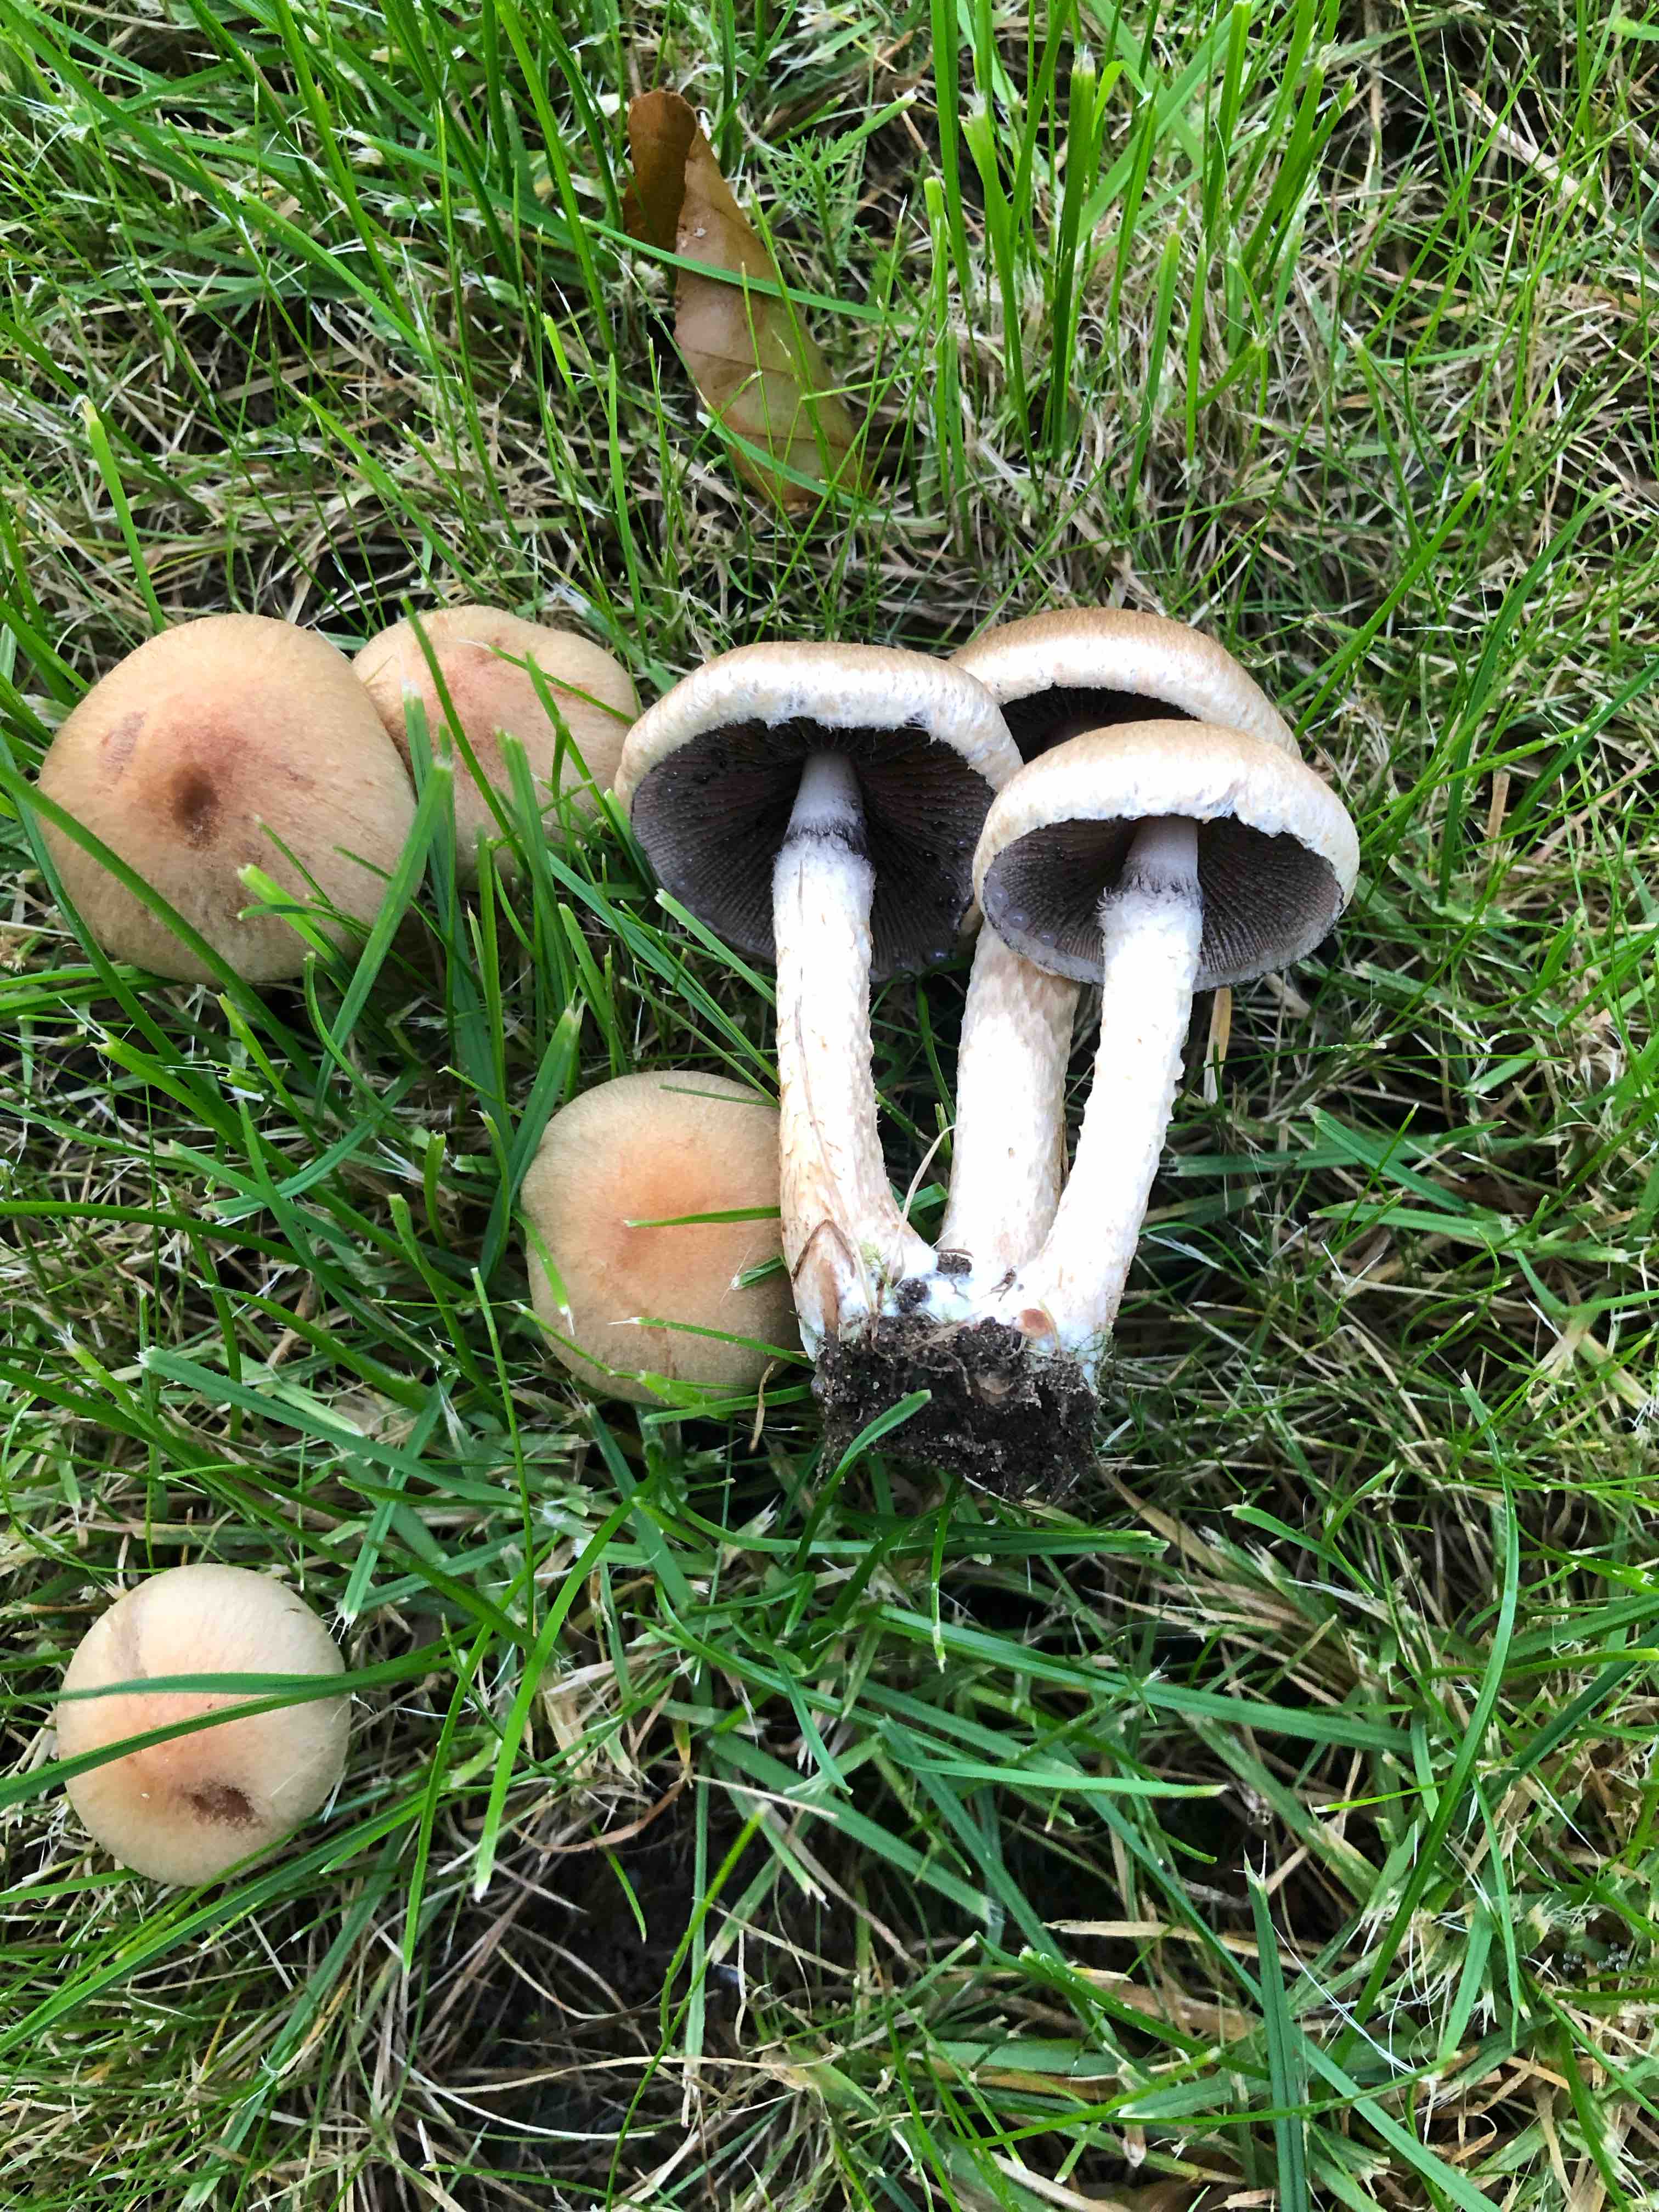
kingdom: Fungi
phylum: Basidiomycota
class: Agaricomycetes
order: Agaricales
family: Psathyrellaceae
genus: Lacrymaria
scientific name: Lacrymaria lacrymabunda
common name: grædende mørkhat
